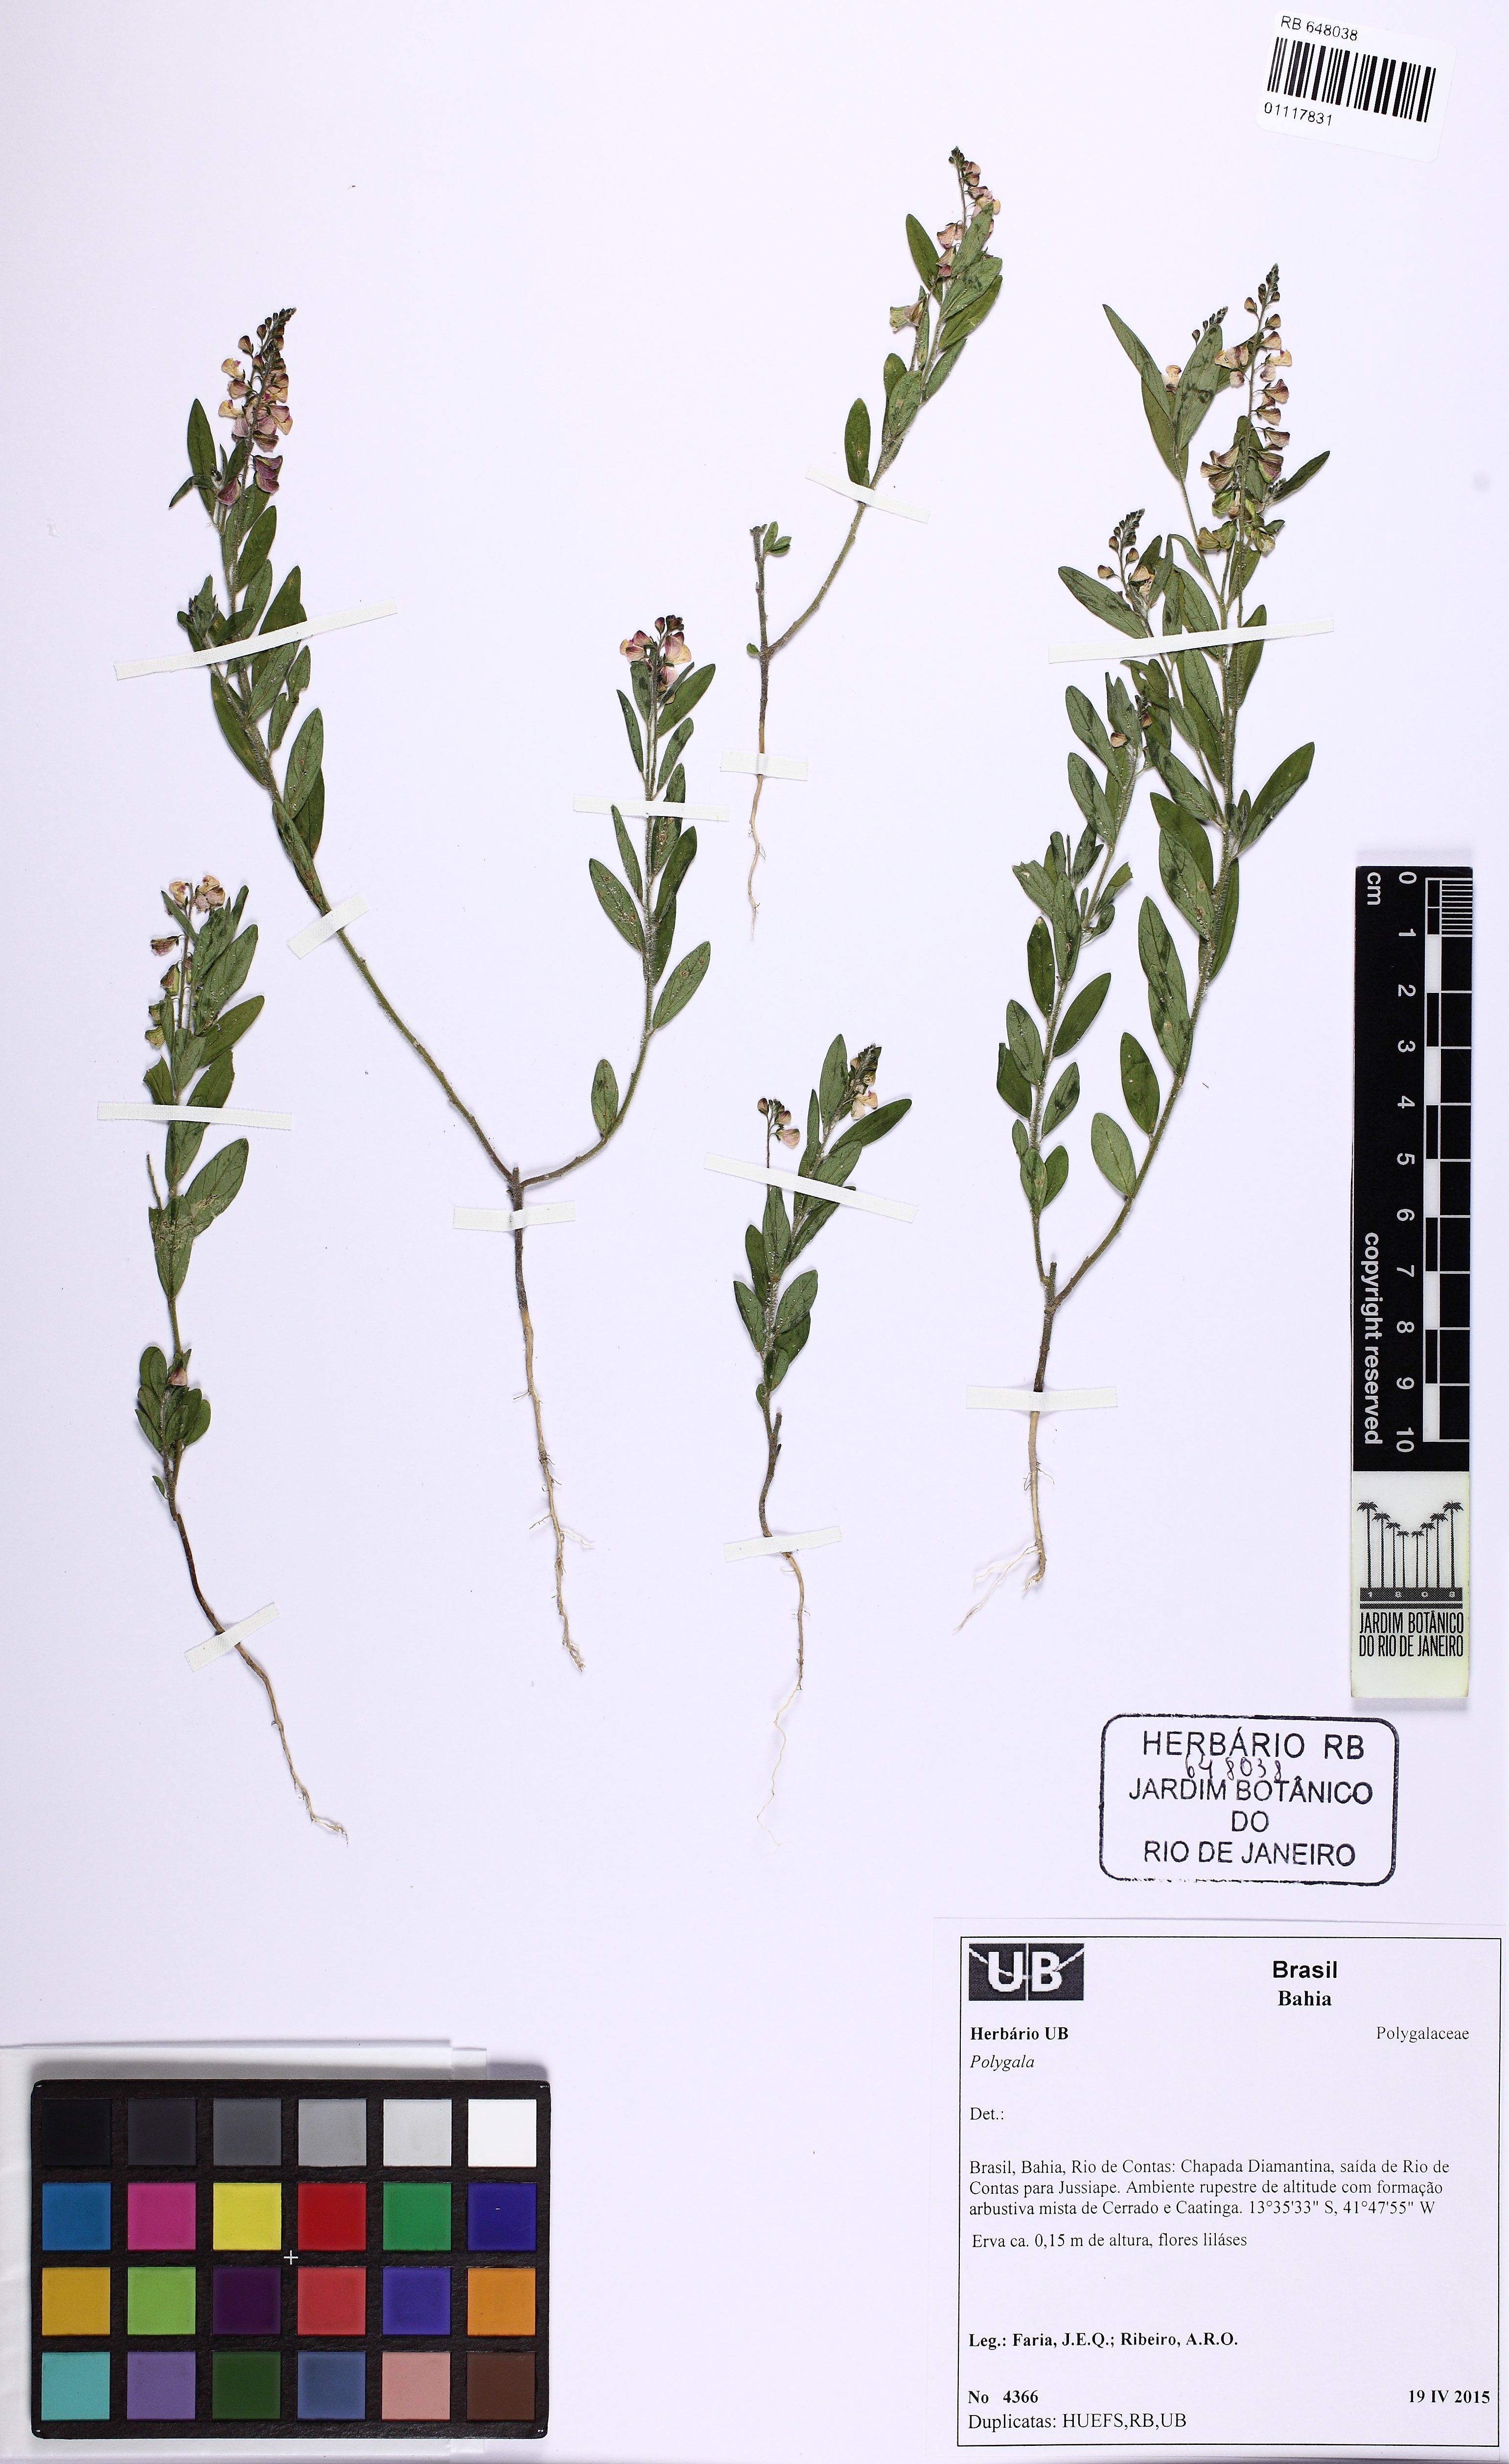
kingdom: Plantae
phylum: Tracheophyta
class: Magnoliopsida
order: Fabales
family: Polygalaceae
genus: Asemeia
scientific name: Asemeia
